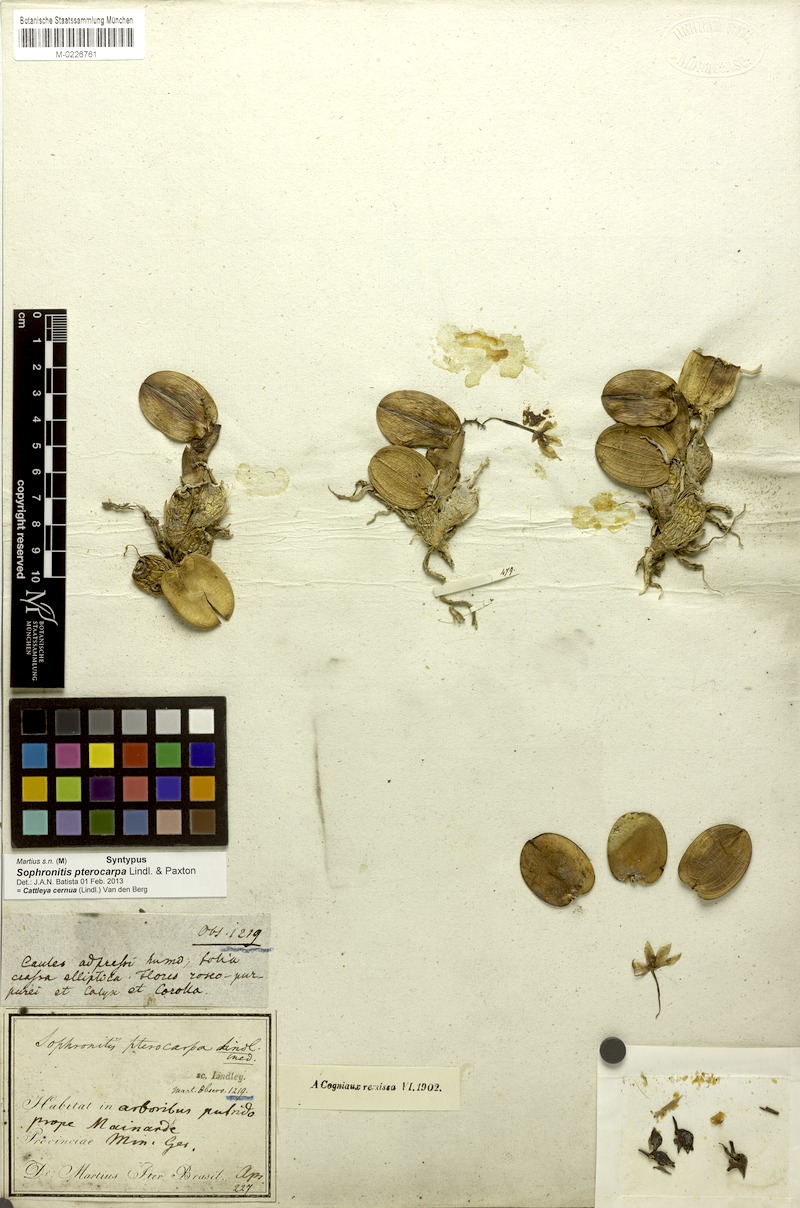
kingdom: Plantae
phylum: Tracheophyta
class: Liliopsida
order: Asparagales
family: Orchidaceae
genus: Cattleya
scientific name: Cattleya cernua
